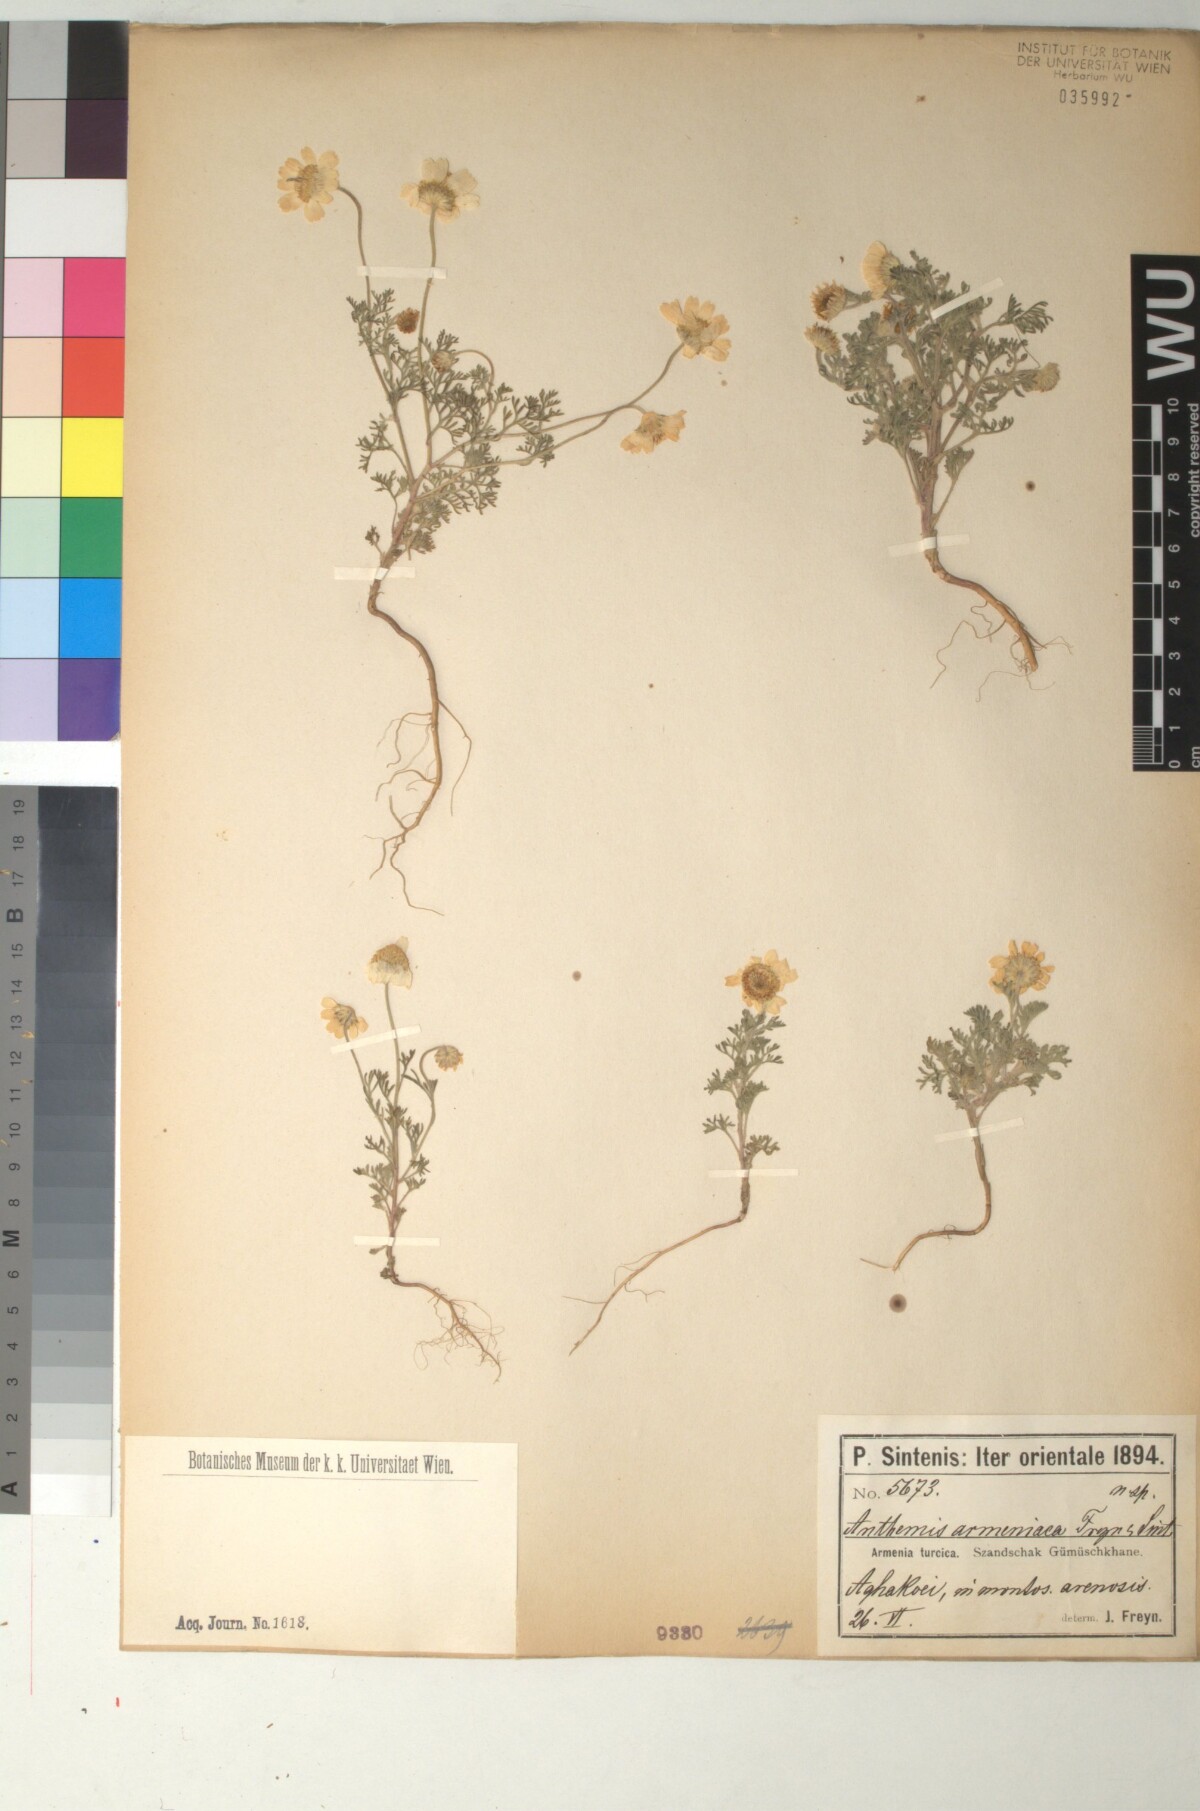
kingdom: Plantae
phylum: Tracheophyta
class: Magnoliopsida
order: Asterales
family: Asteraceae
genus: Anthemis
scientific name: Anthemis candidissima
